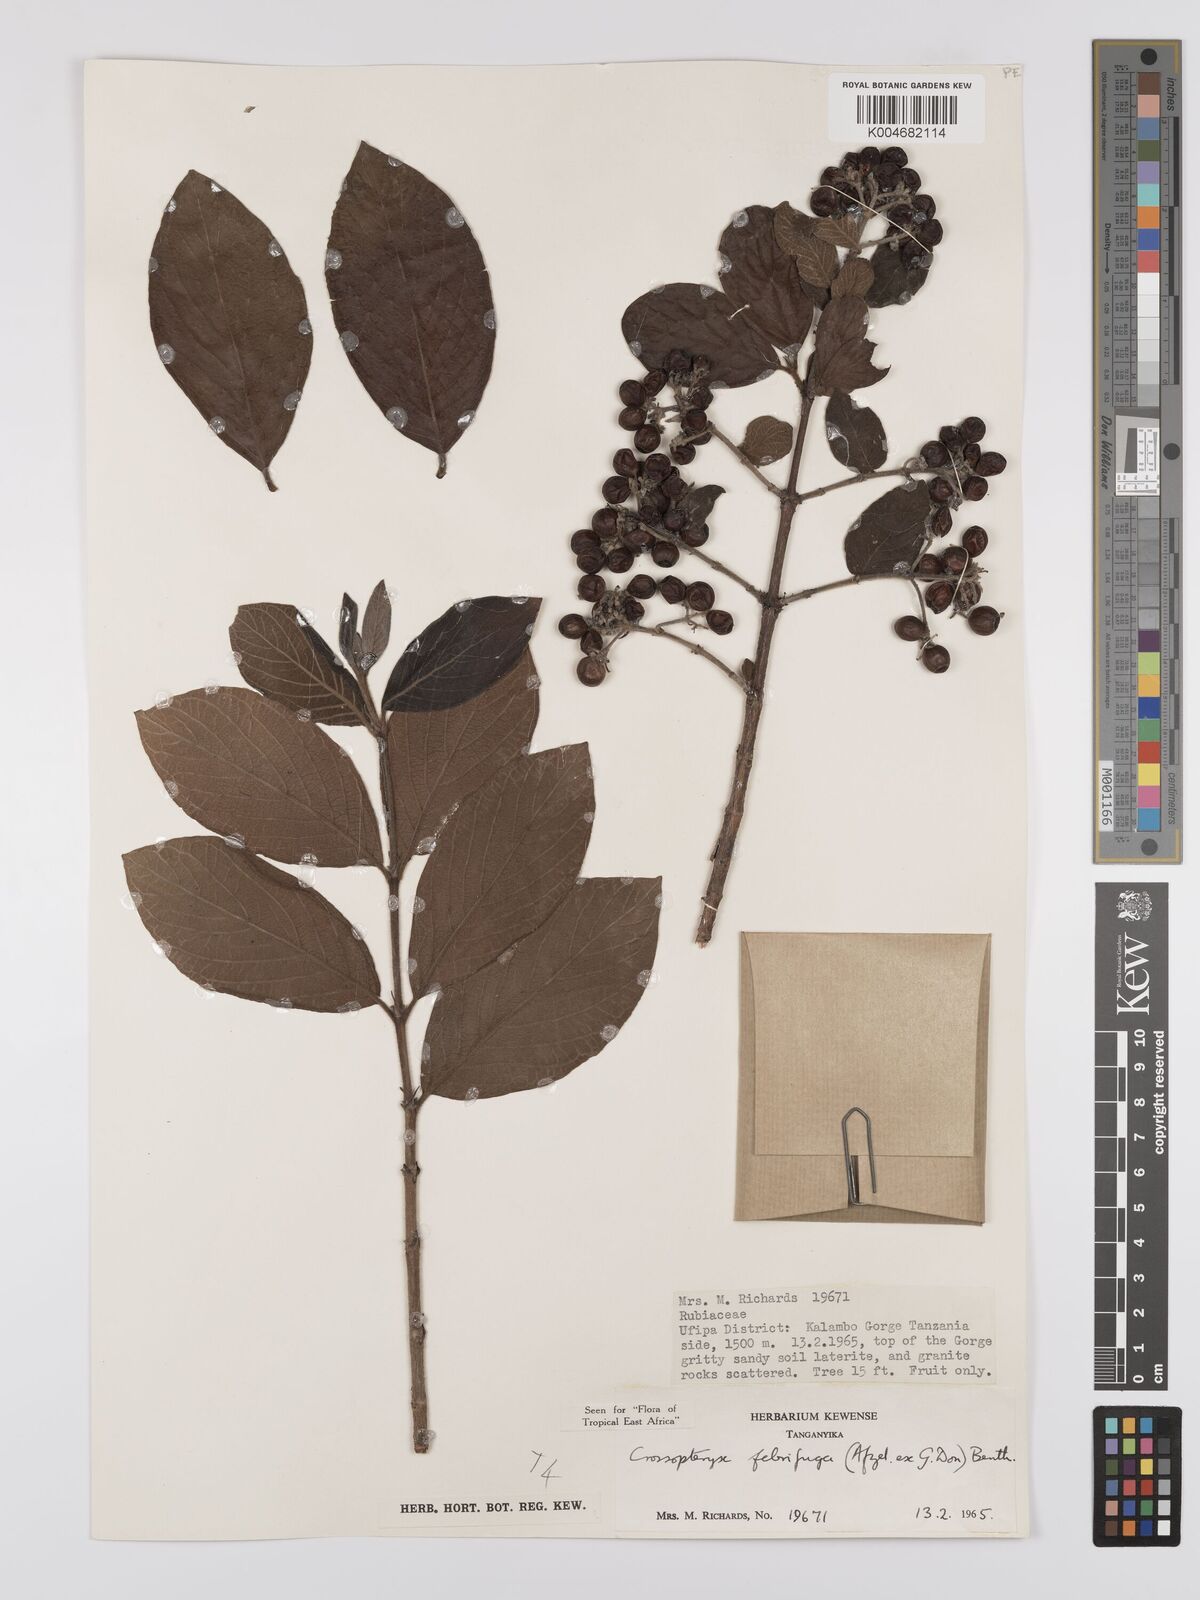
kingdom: Plantae
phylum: Tracheophyta
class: Magnoliopsida
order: Gentianales
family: Rubiaceae
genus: Crossopteryx
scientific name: Crossopteryx febrifuga
